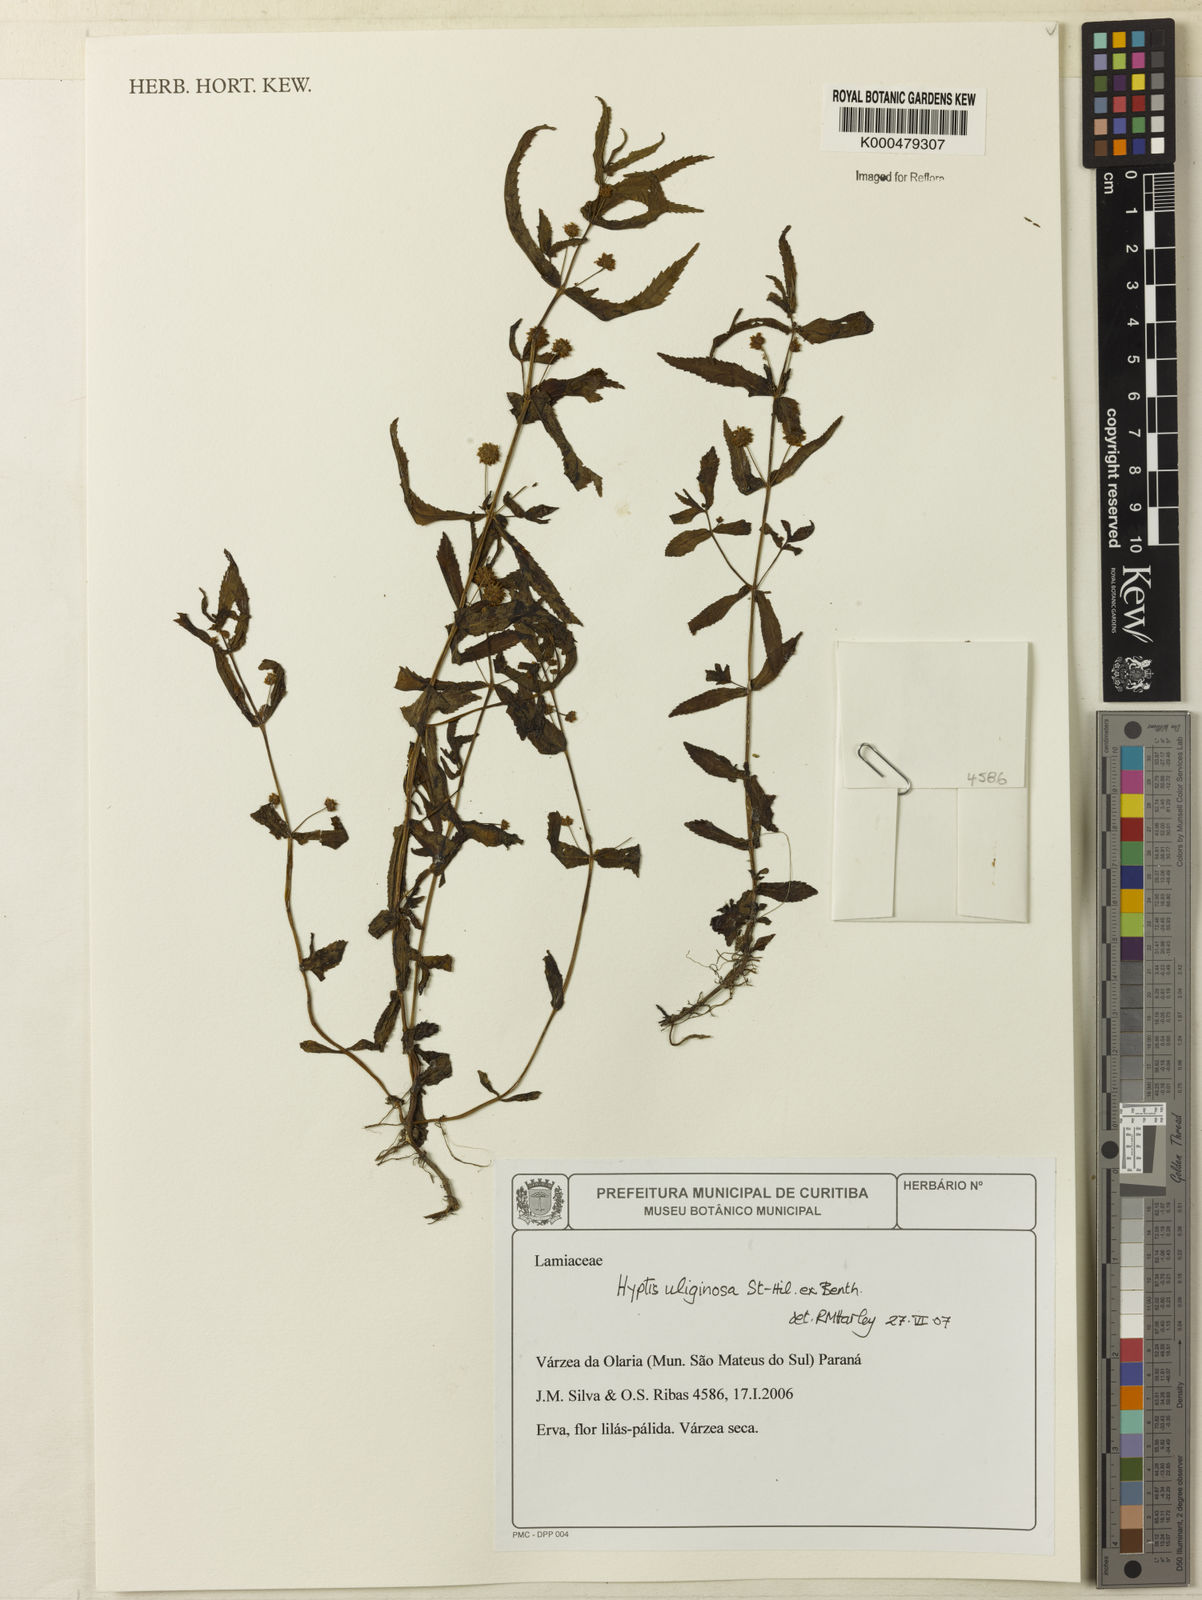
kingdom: Plantae
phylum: Tracheophyta
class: Magnoliopsida
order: Lamiales
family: Lamiaceae
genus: Hyptis
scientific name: Hyptis uliginosa
